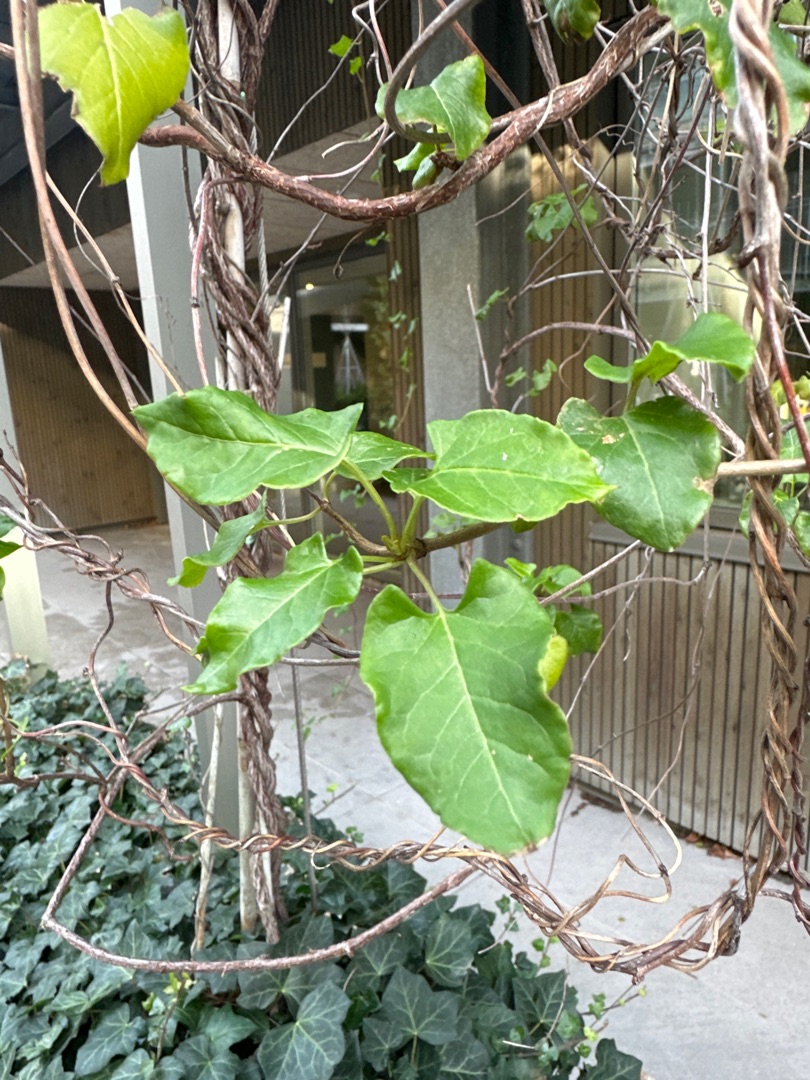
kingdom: Plantae
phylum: Tracheophyta
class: Magnoliopsida
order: Caryophyllales
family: Polygonaceae
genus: Fallopia
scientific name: Fallopia baldschuanica
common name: Sølvregn
